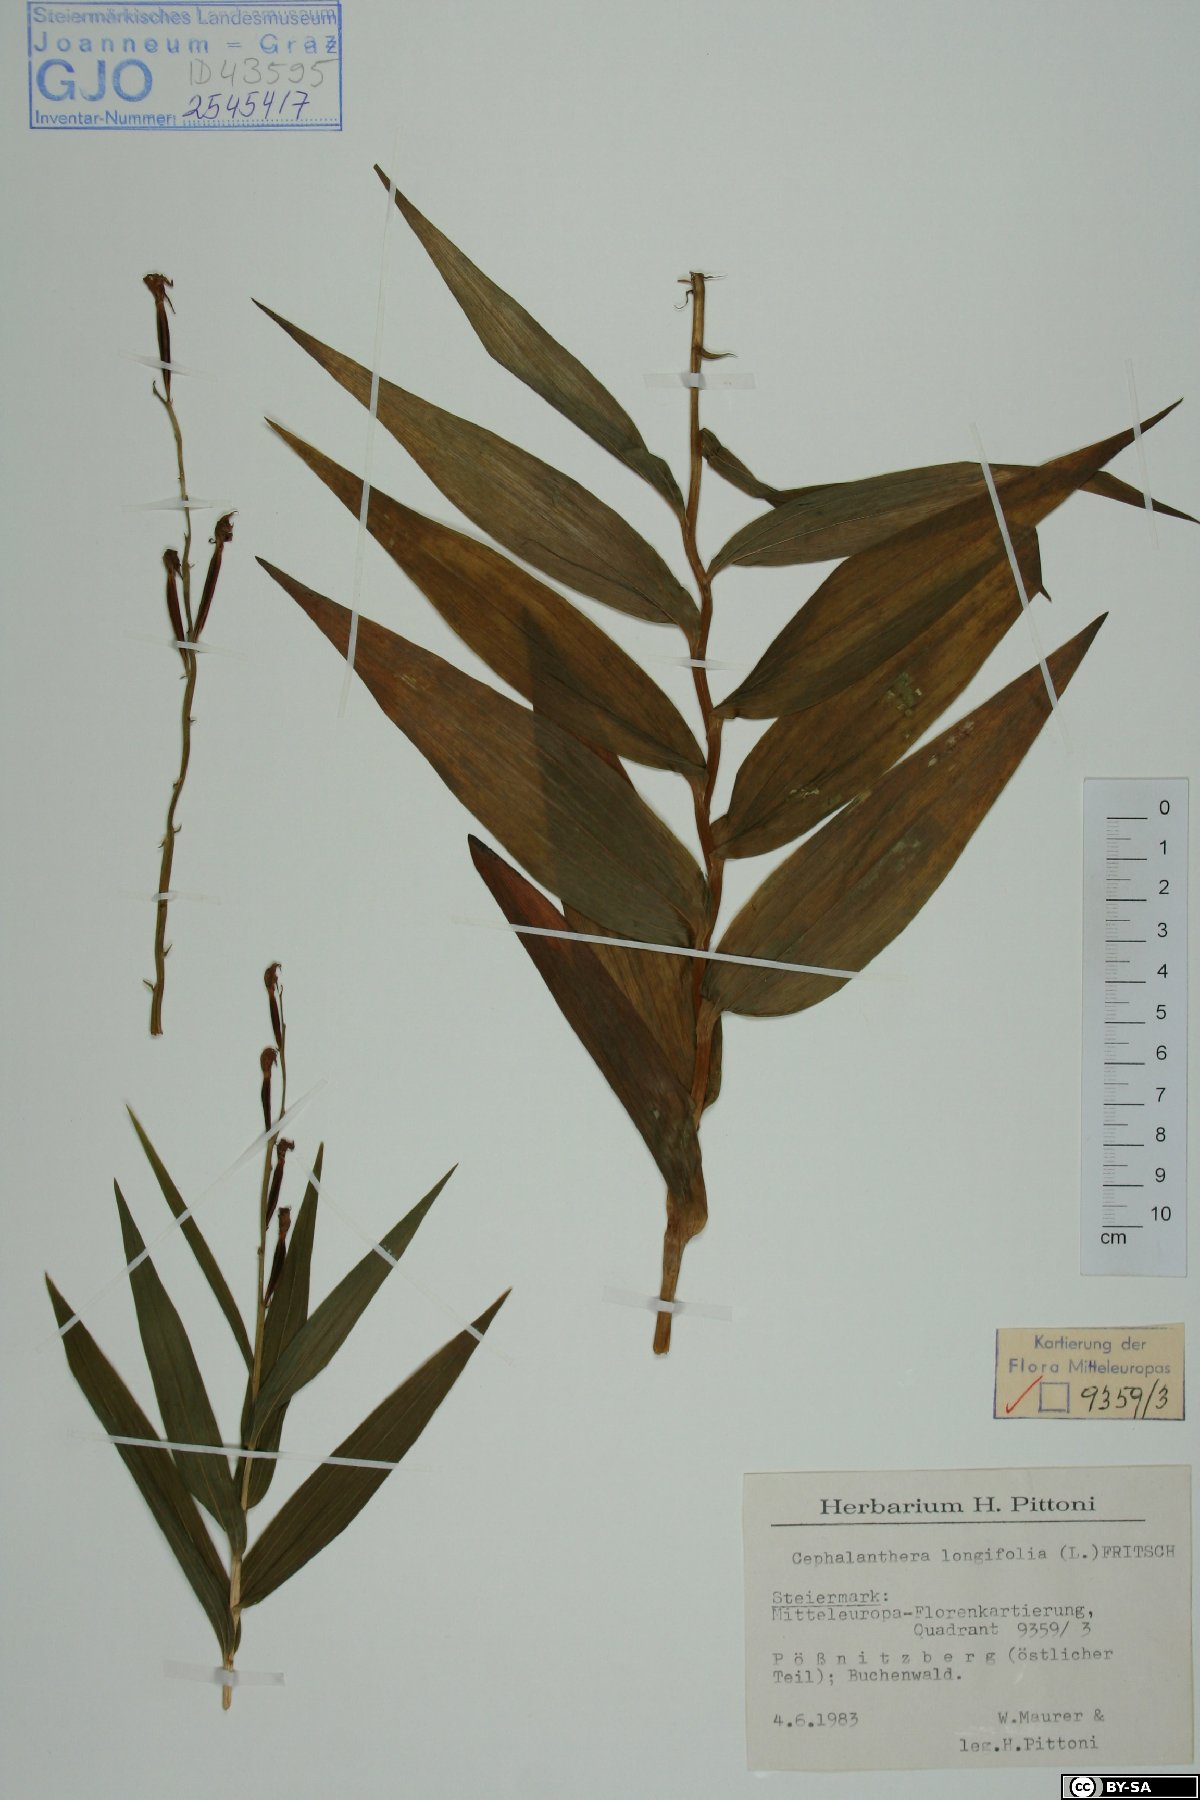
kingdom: Plantae
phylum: Tracheophyta
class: Liliopsida
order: Asparagales
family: Orchidaceae
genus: Cephalanthera
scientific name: Cephalanthera longifolia
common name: Narrow-leaved helleborine
